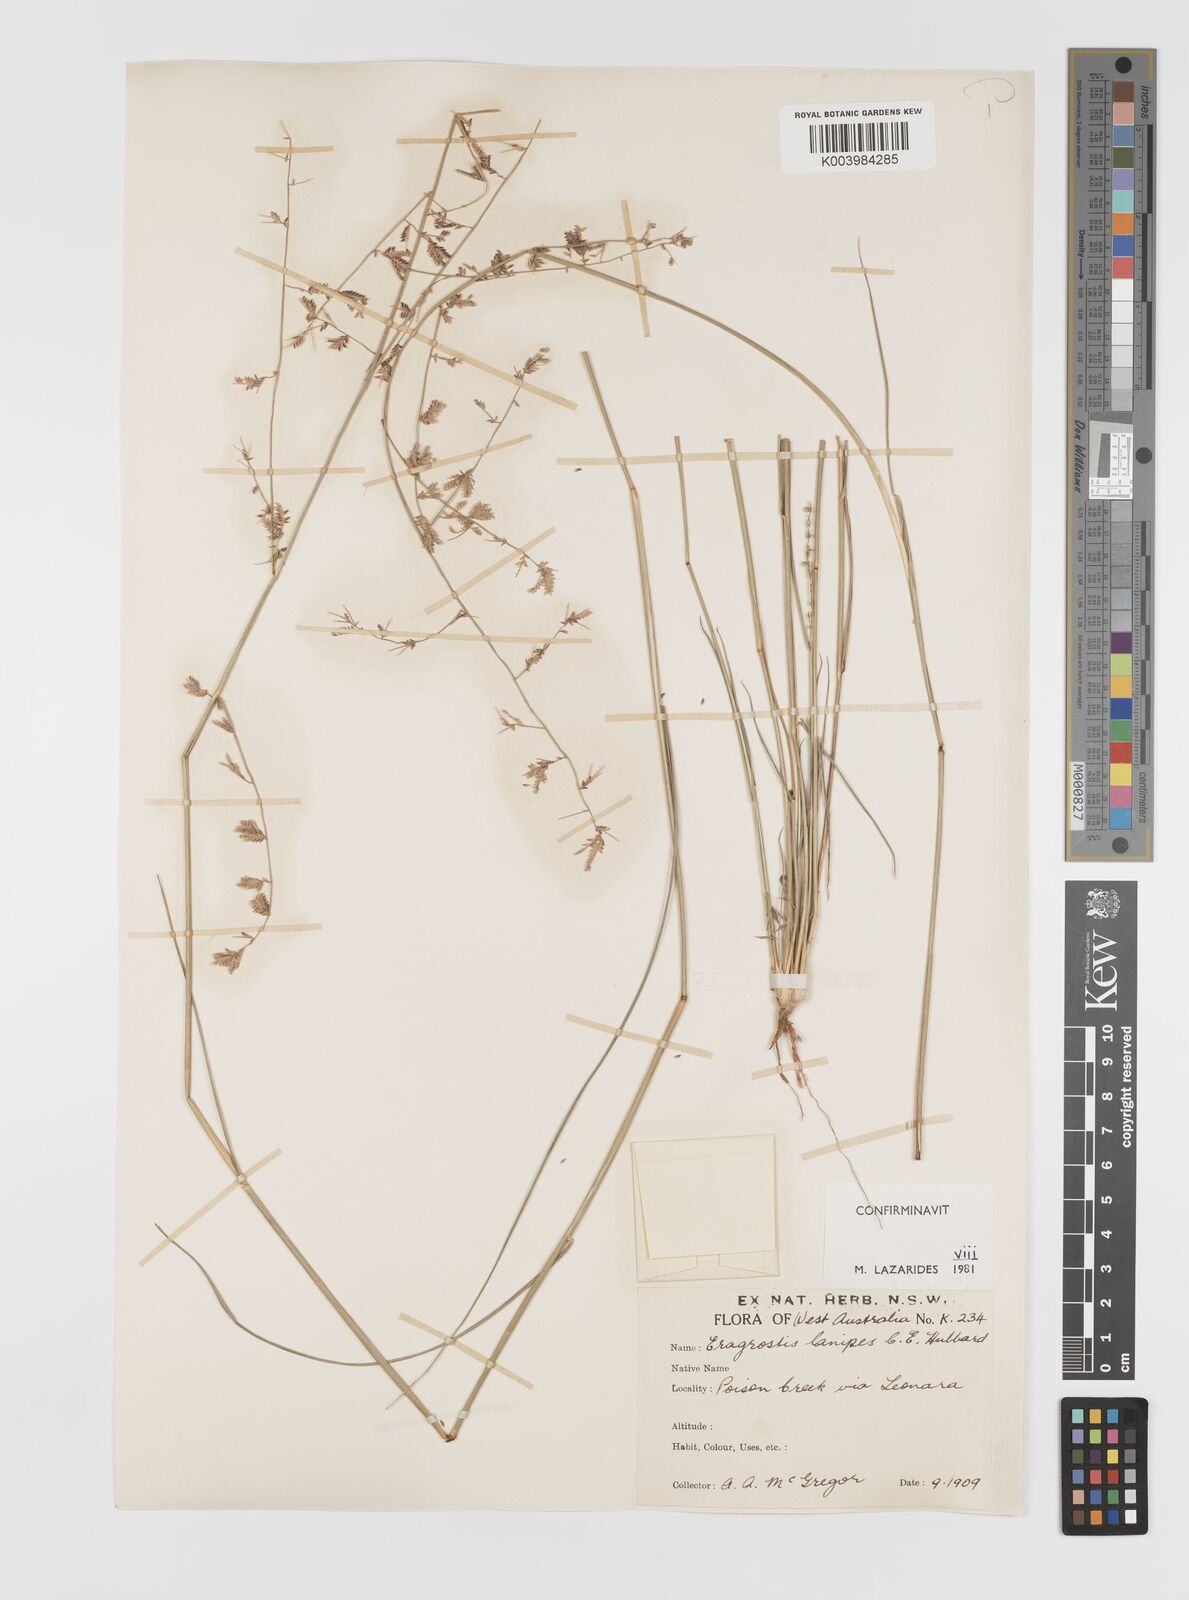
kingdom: Plantae
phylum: Tracheophyta
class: Liliopsida
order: Poales
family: Poaceae
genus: Eragrostis
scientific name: Eragrostis lanipes
